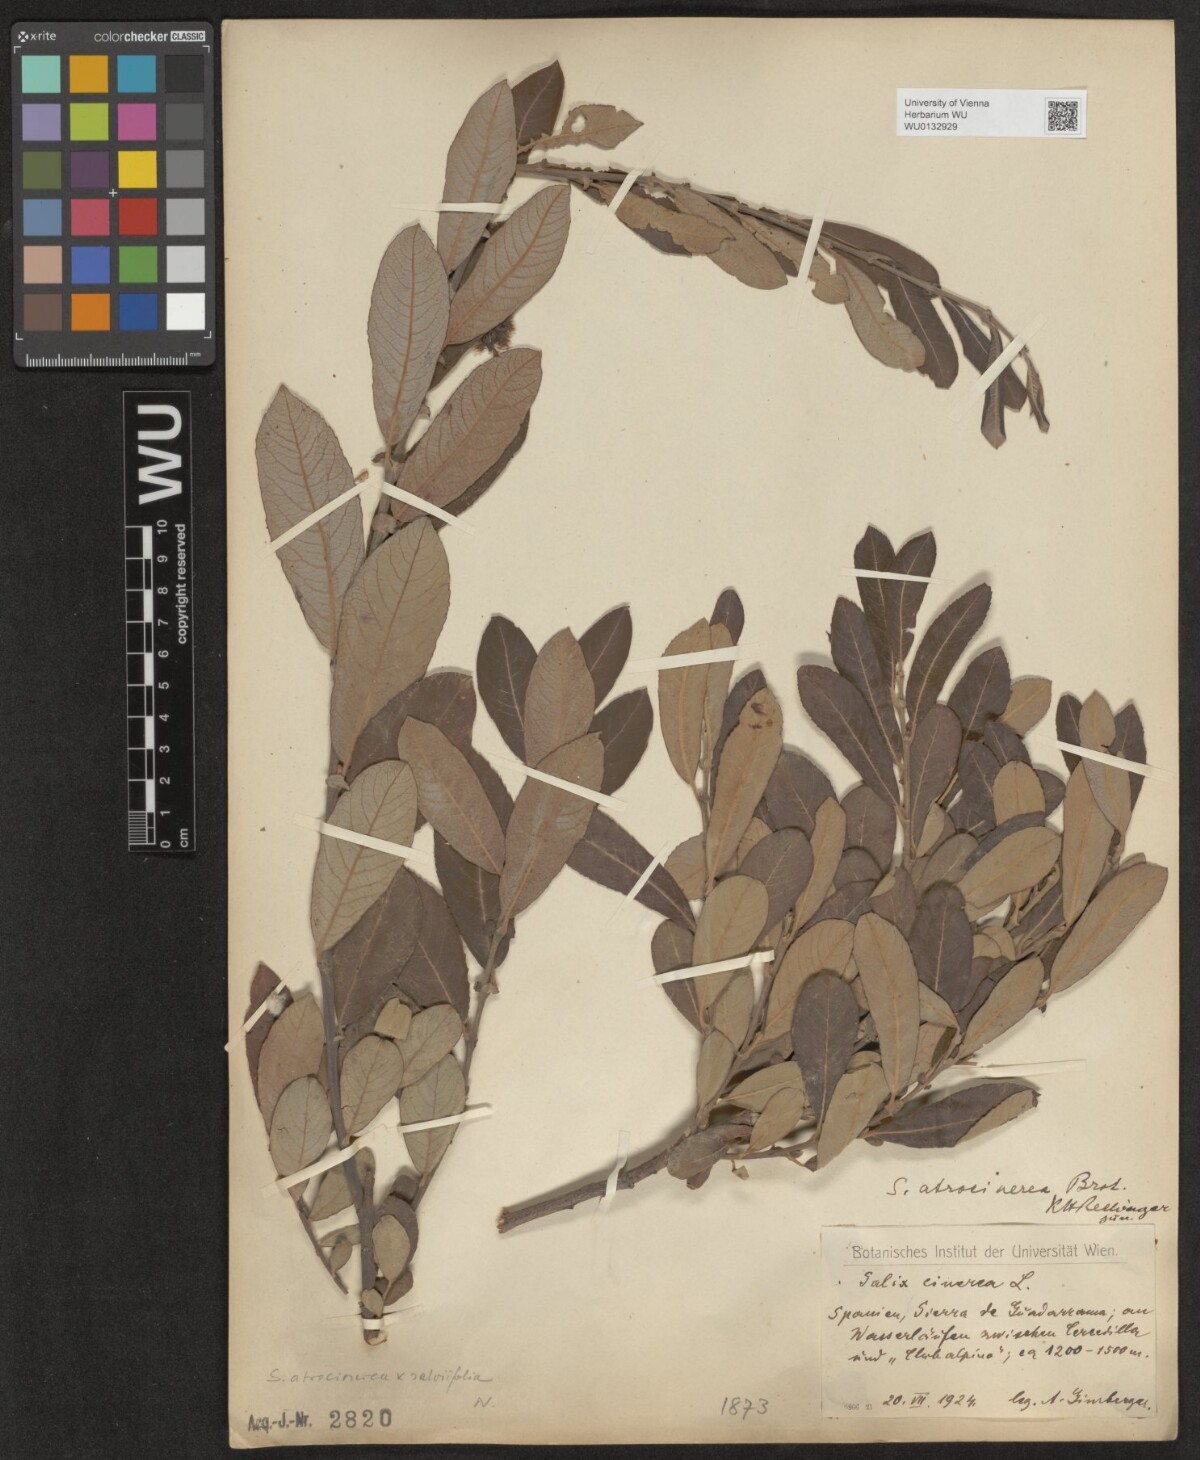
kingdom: Plantae
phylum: Tracheophyta
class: Magnoliopsida
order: Malpighiales
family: Salicaceae
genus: Salix
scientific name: Salix atrocinerea
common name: Rusty willow
